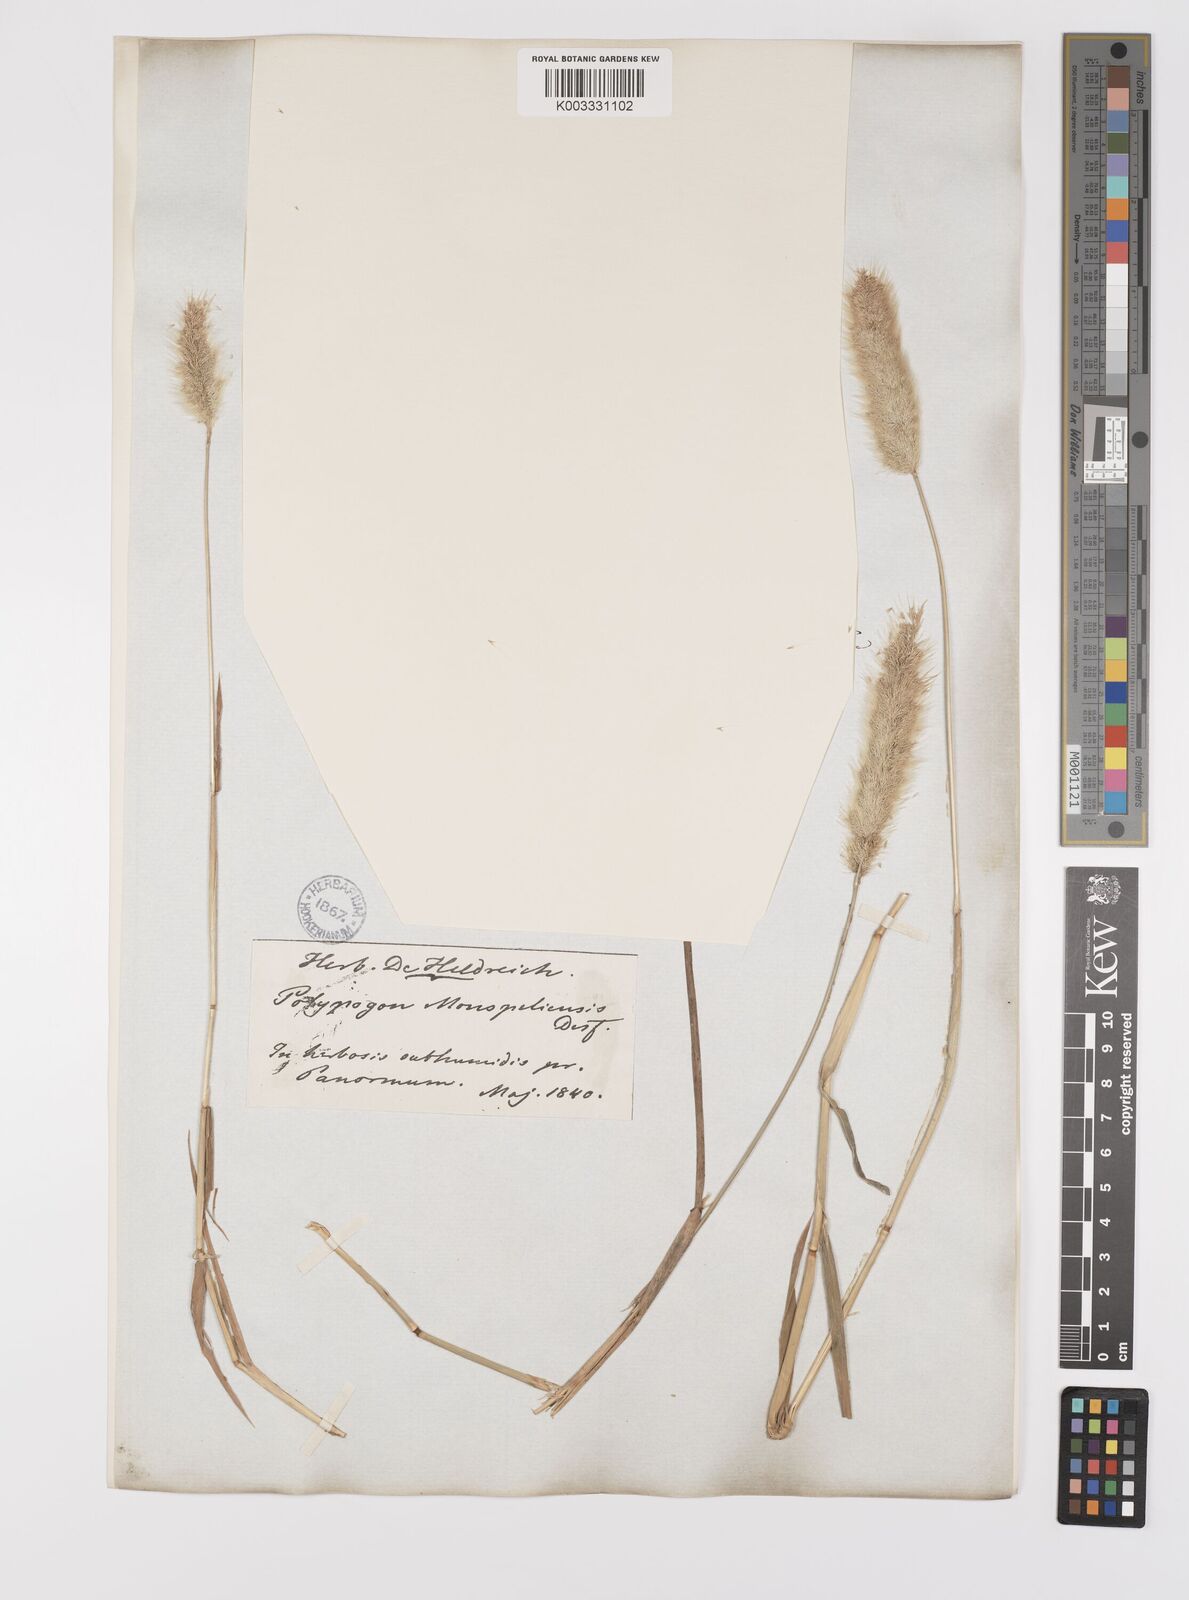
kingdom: Plantae
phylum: Tracheophyta
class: Liliopsida
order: Poales
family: Poaceae
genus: Polypogon
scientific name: Polypogon monspeliensis
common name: Annual rabbitsfoot grass
